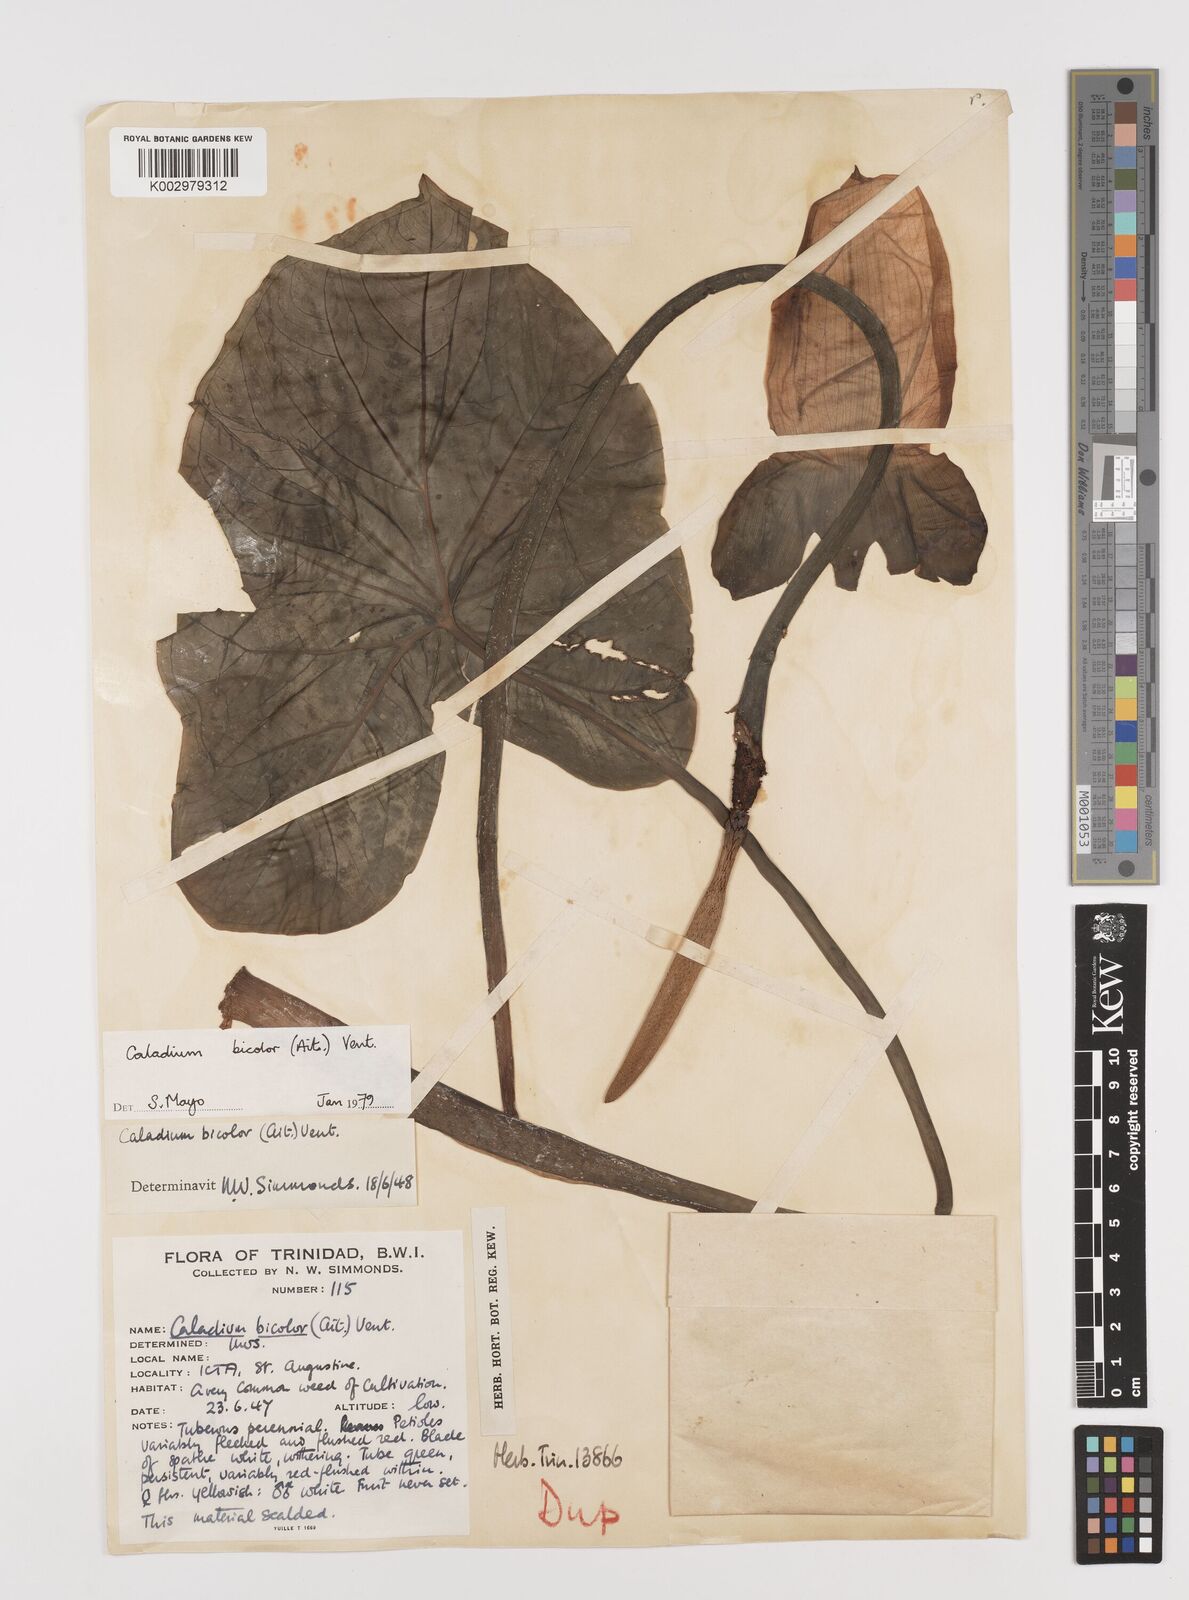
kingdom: Plantae
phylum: Tracheophyta
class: Liliopsida
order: Alismatales
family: Araceae
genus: Caladium
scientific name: Caladium bicolor
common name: Artist's pallet
